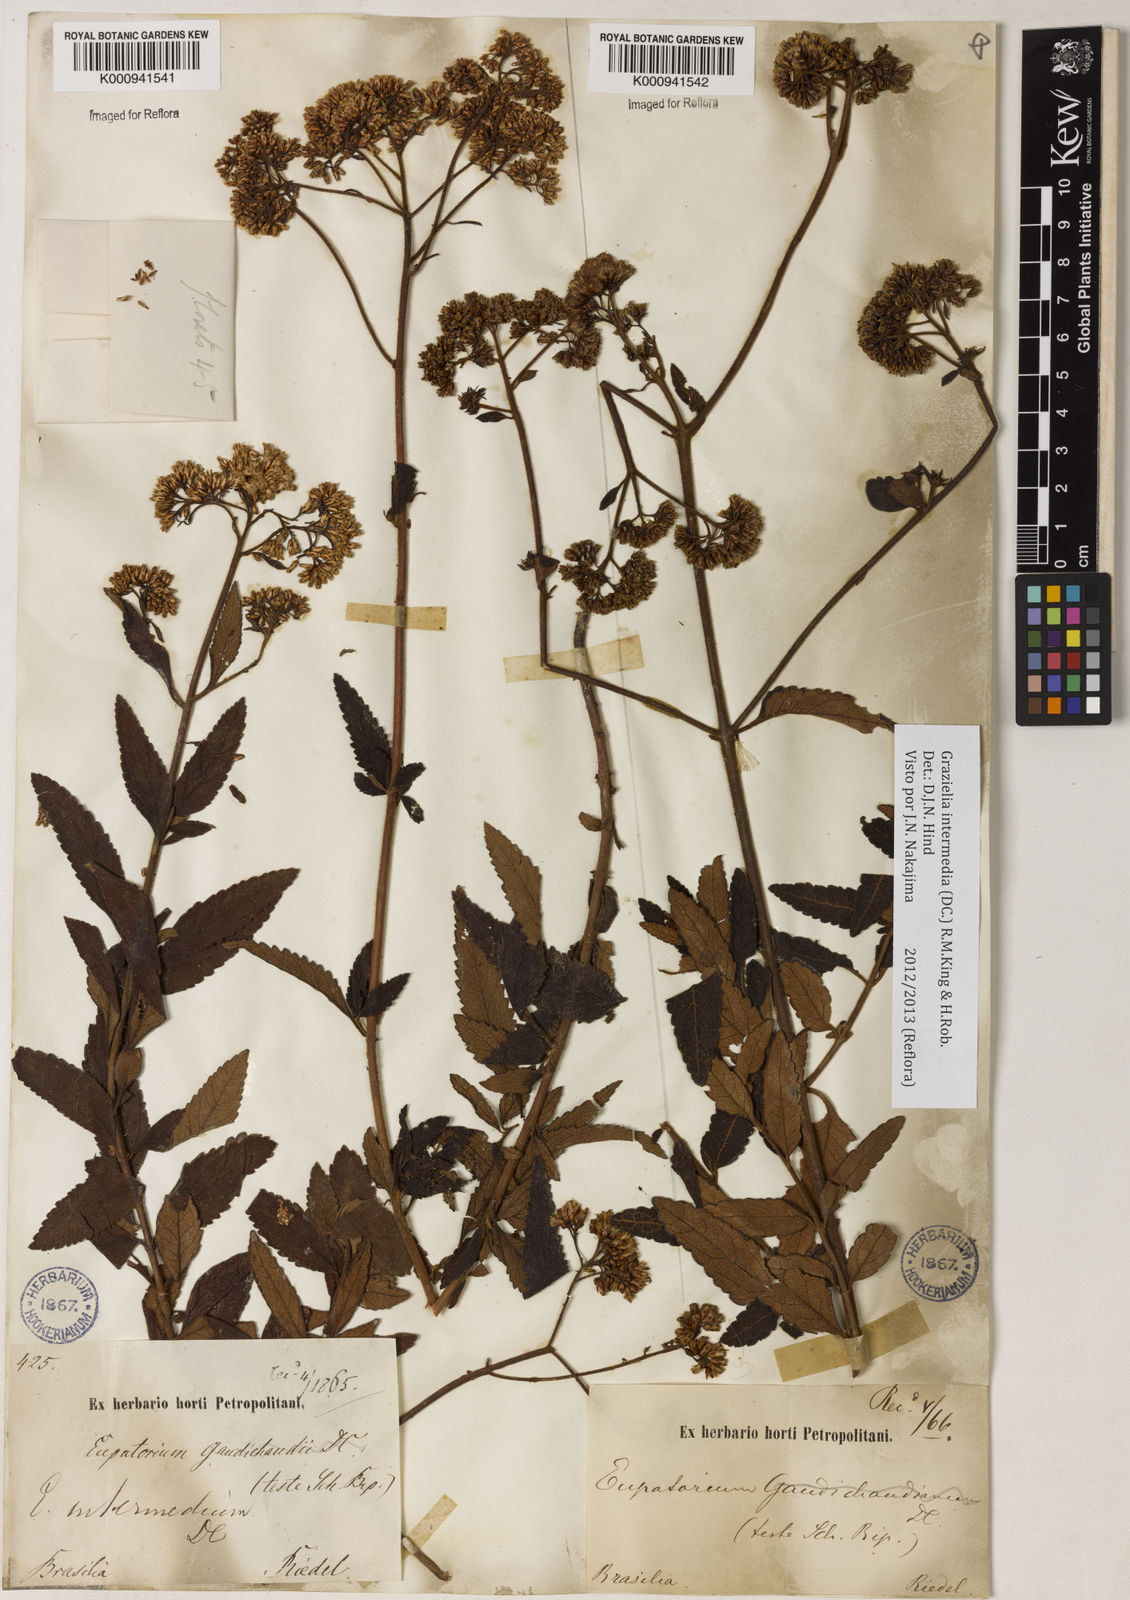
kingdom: Plantae
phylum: Tracheophyta
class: Magnoliopsida
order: Asterales
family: Asteraceae
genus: Grazielia
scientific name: Grazielia intermedia
